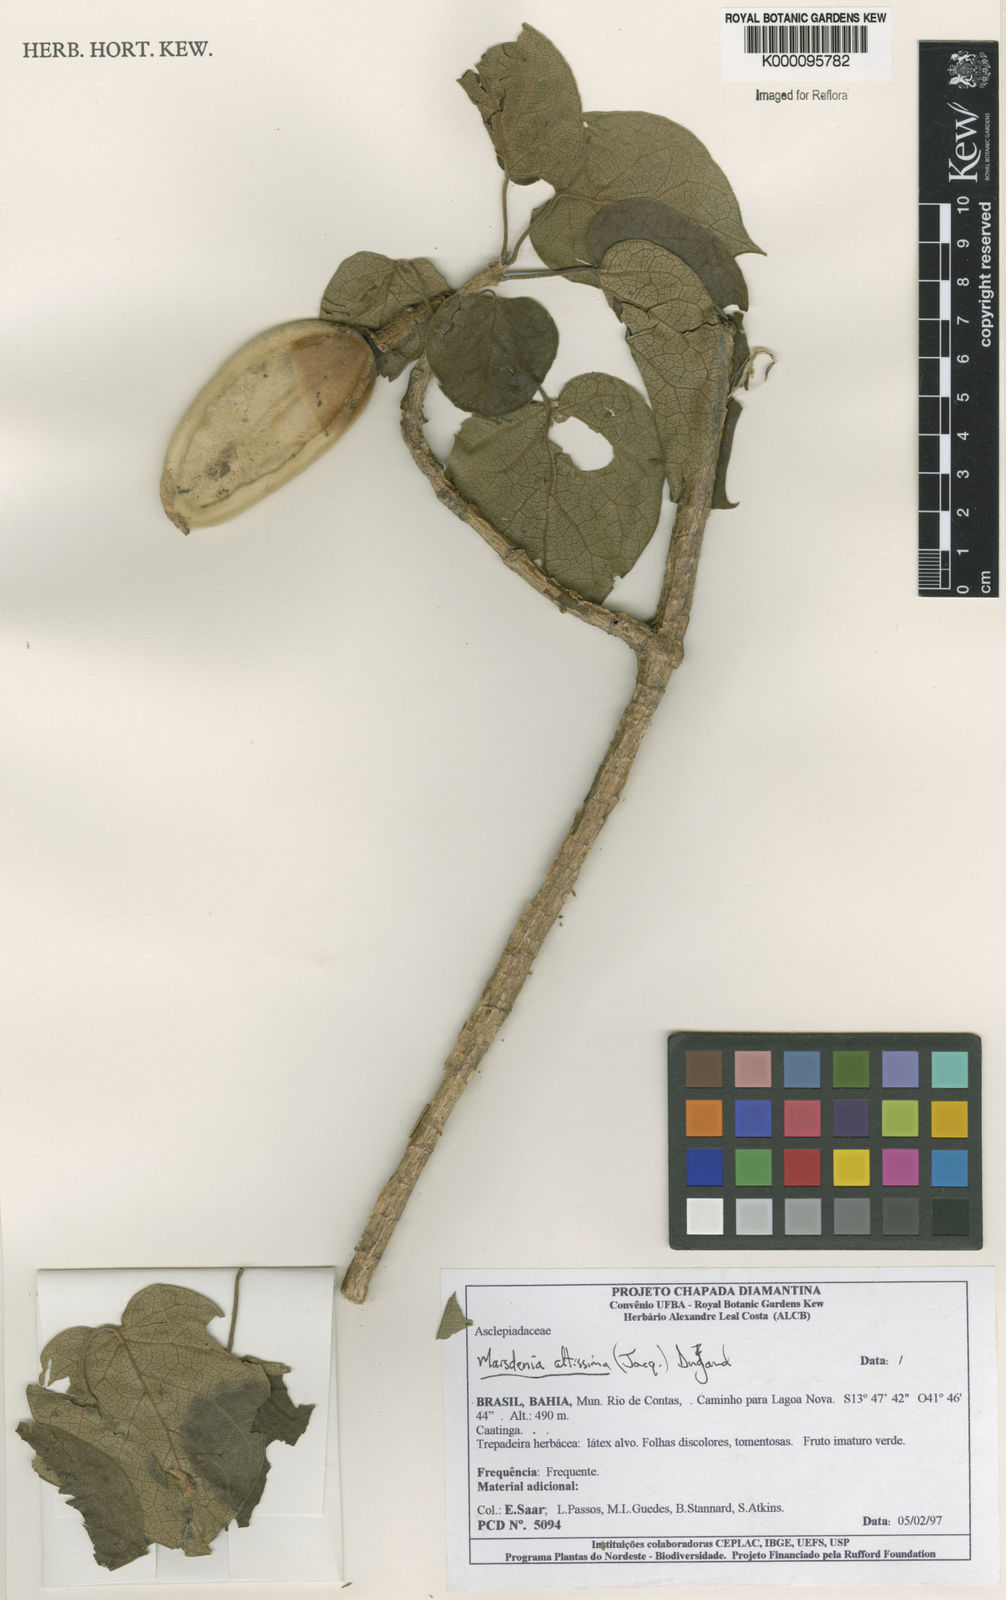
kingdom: Plantae
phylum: Tracheophyta
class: Magnoliopsida
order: Gentianales
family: Apocynaceae
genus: Ruehssia
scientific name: Ruehssia altissima
